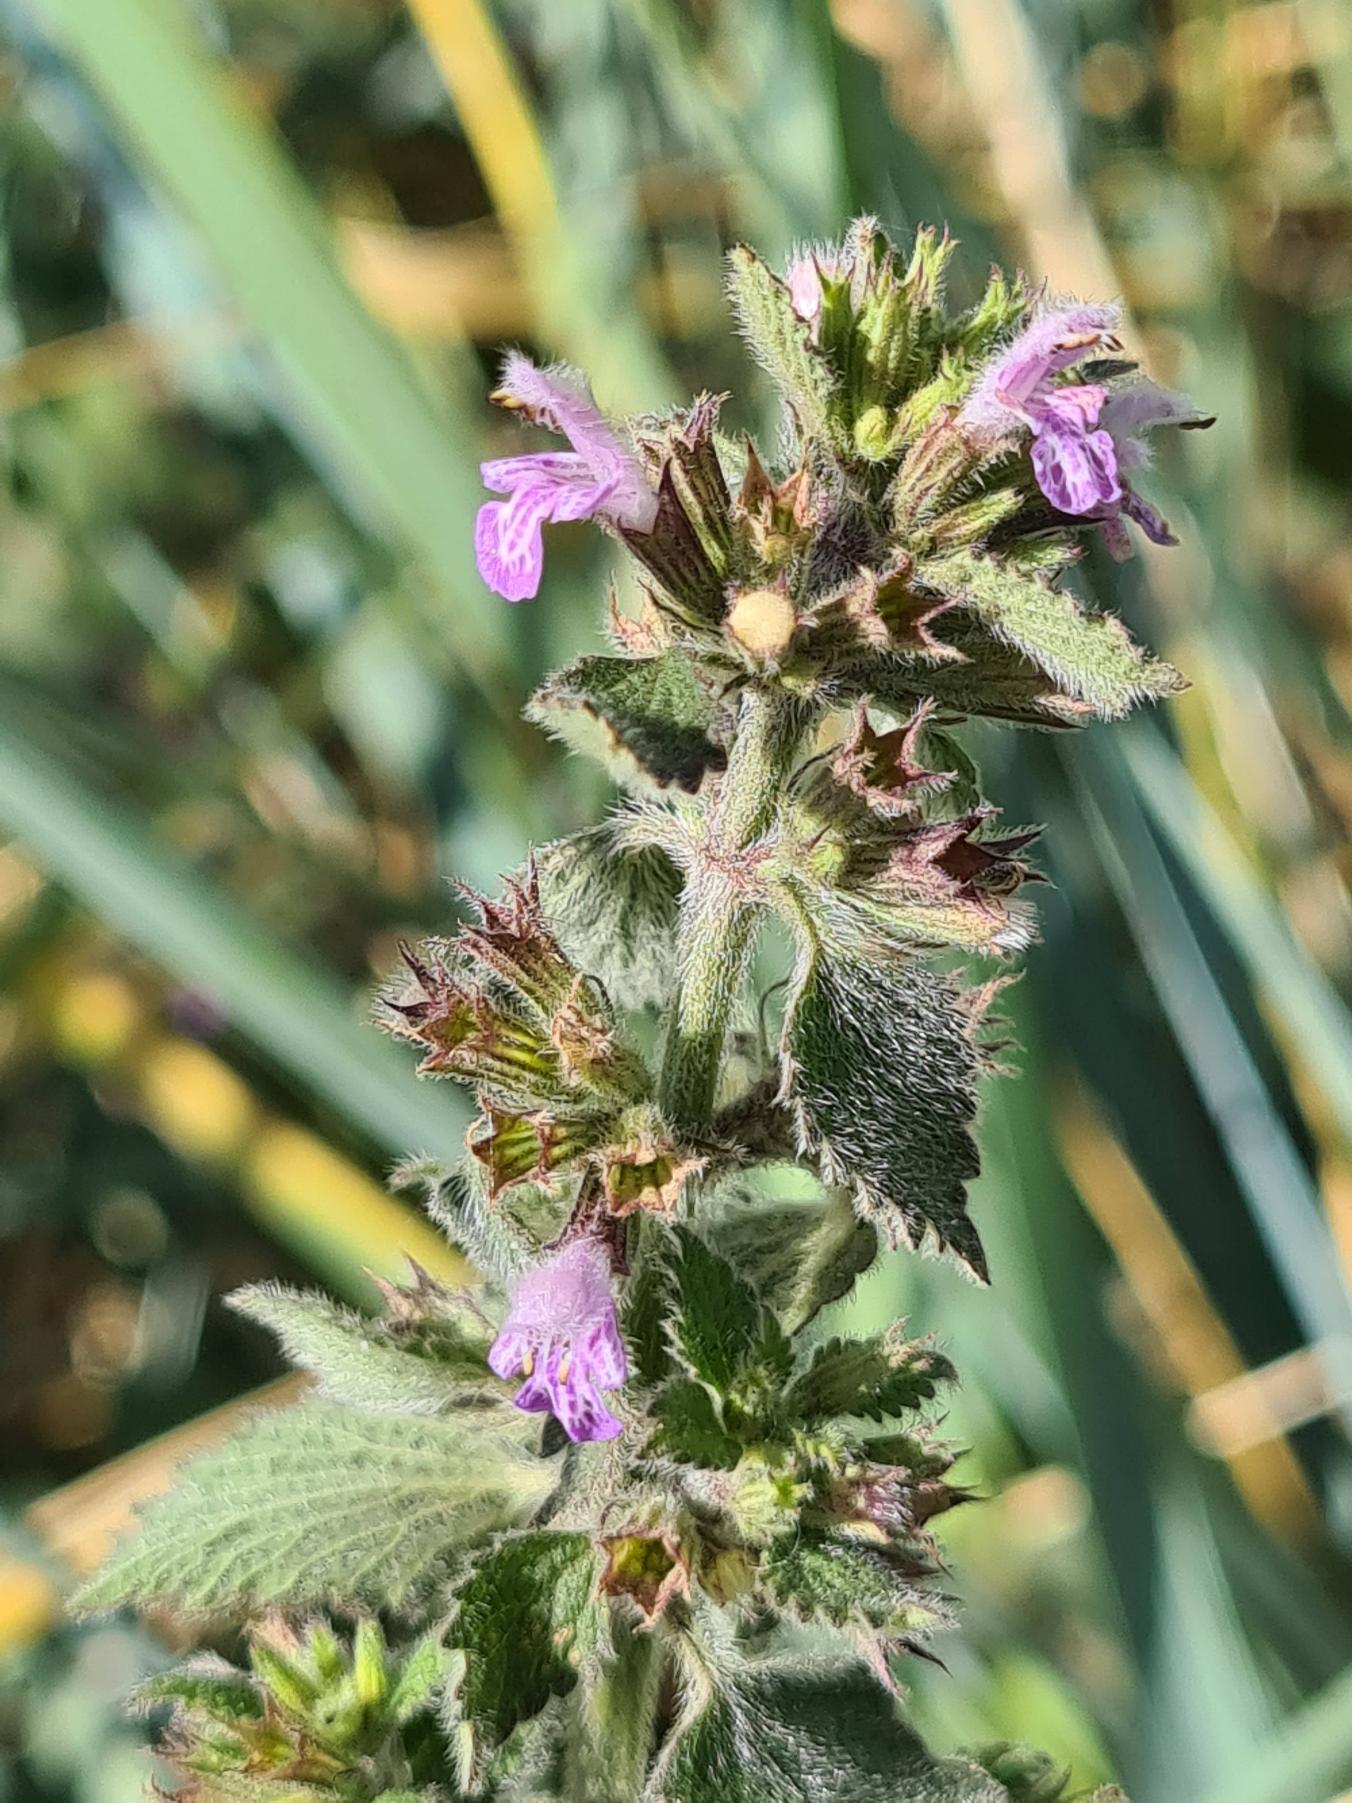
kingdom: Plantae
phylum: Tracheophyta
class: Magnoliopsida
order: Lamiales
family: Lamiaceae
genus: Ballota
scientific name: Ballota nigra
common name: Tandbæger
